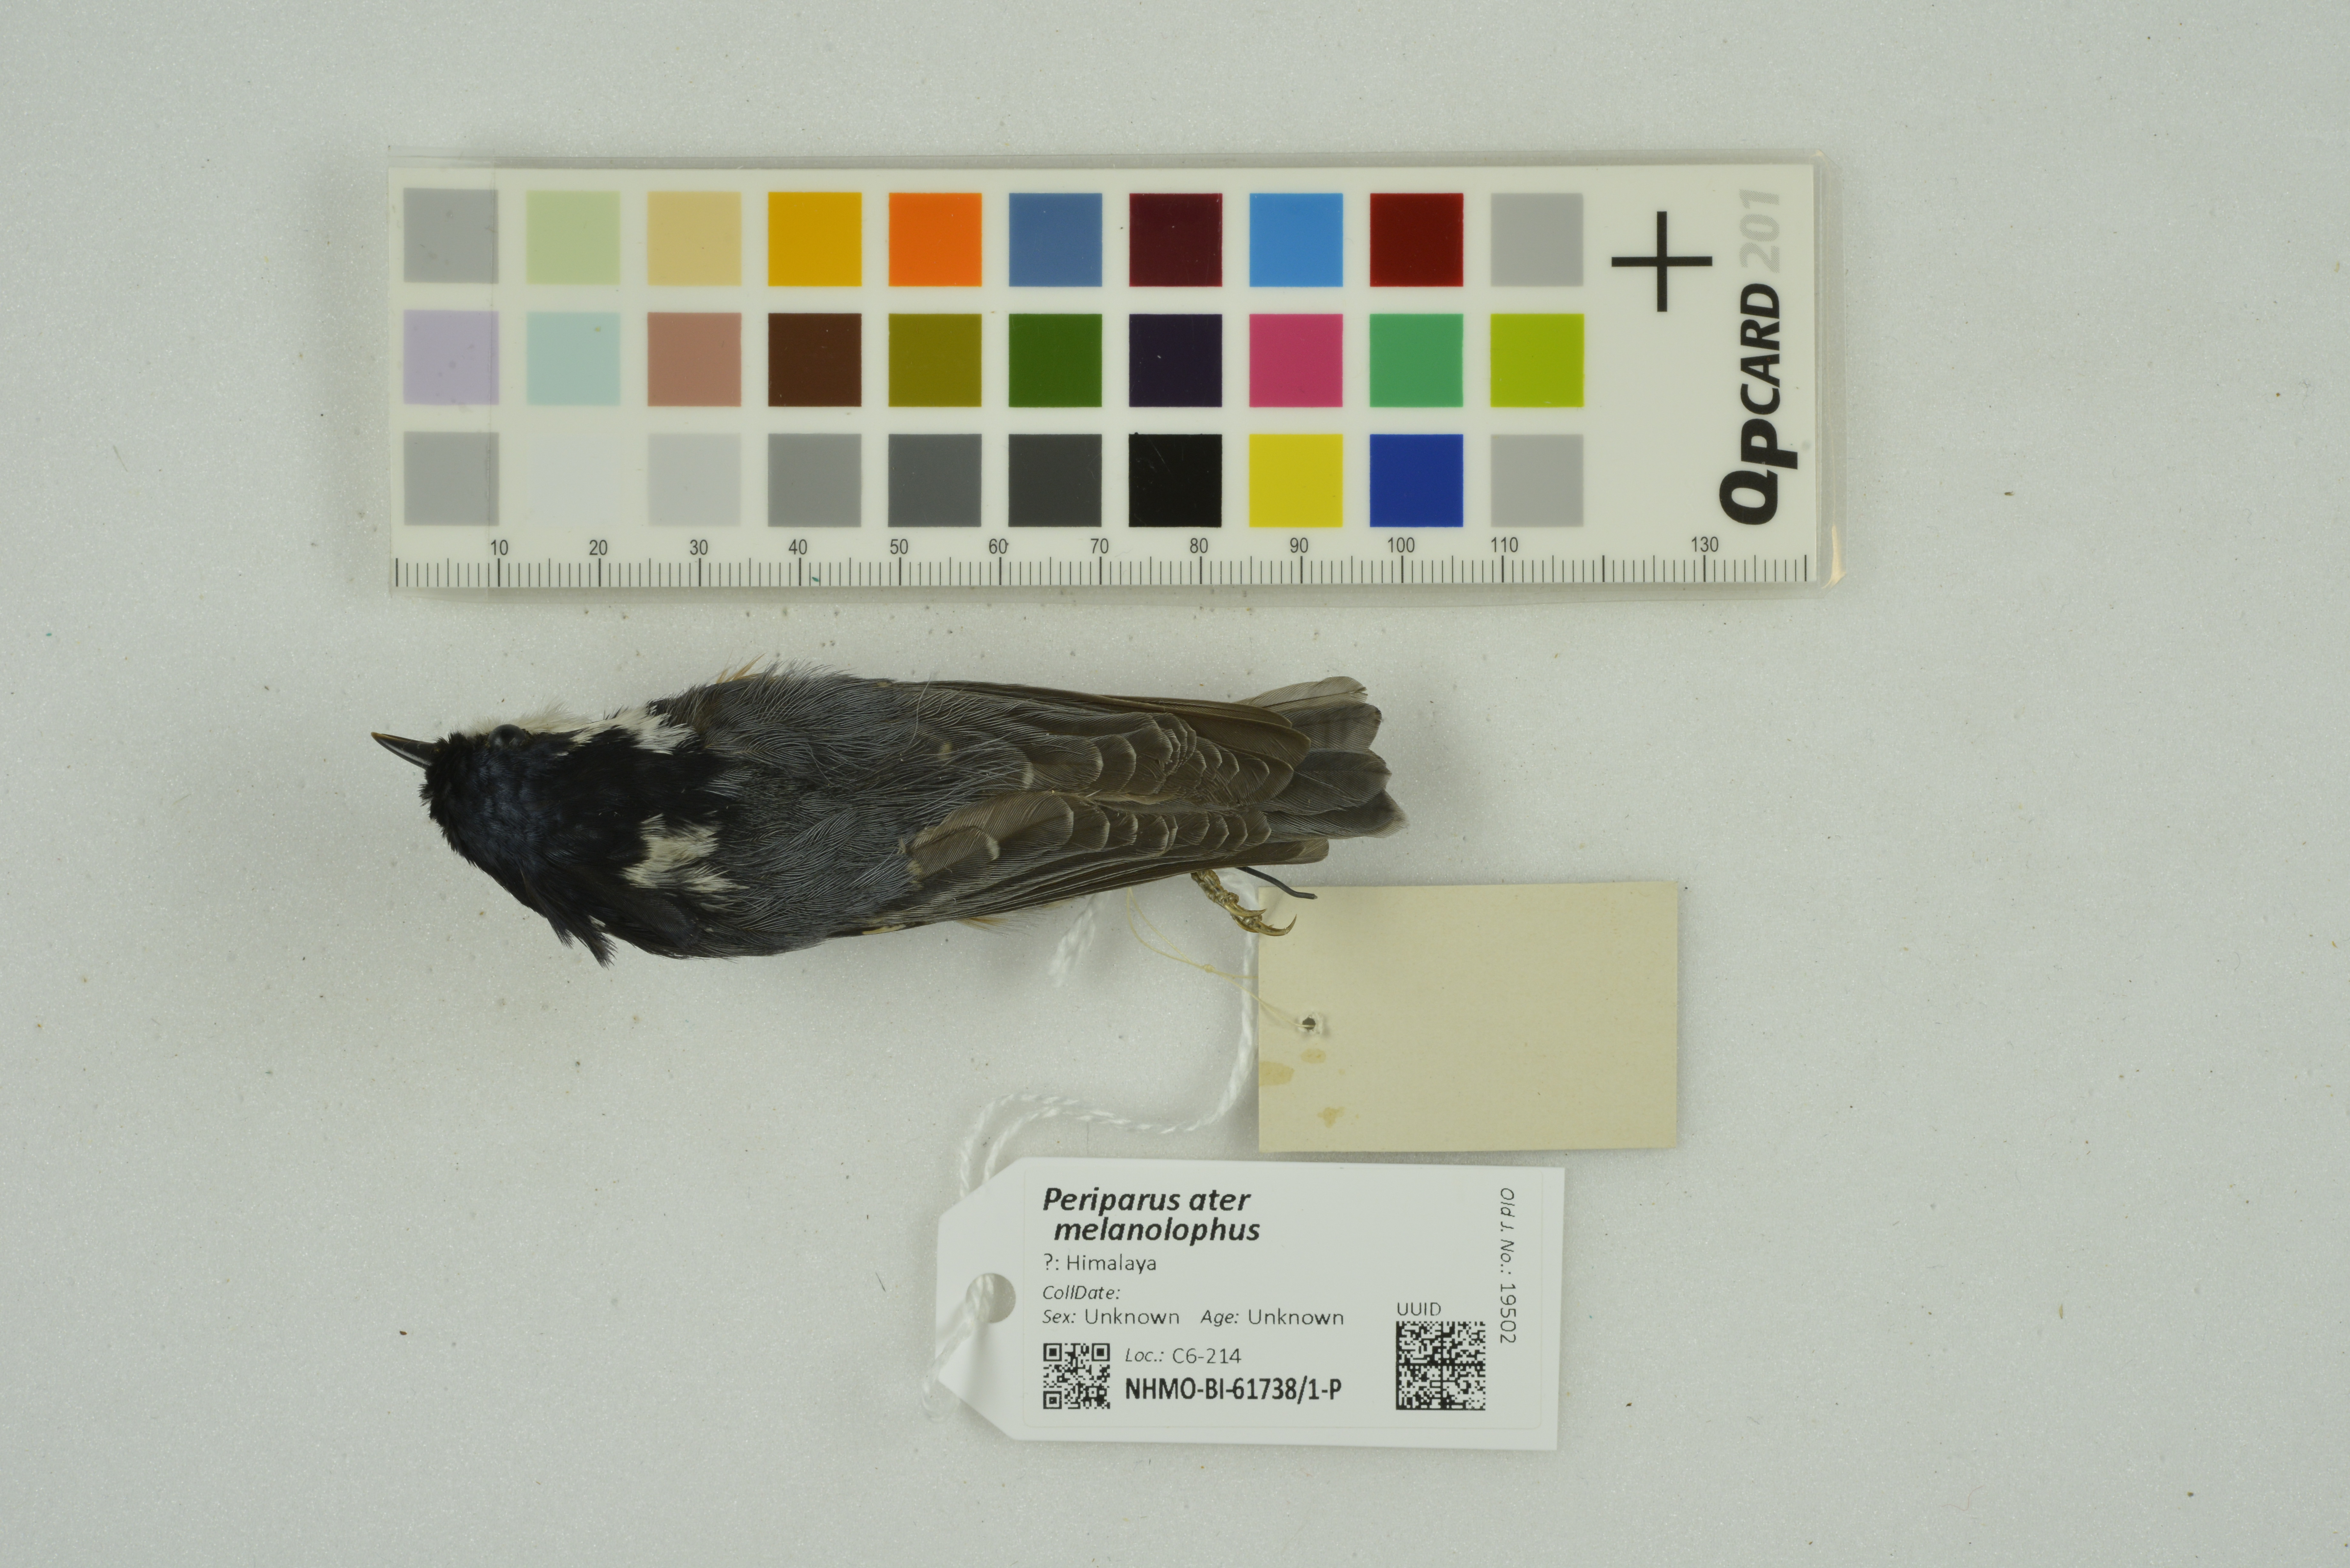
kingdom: Animalia
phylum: Chordata
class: Aves
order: Passeriformes
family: Paridae
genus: Periparus
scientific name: Periparus ater
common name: Coal tit
